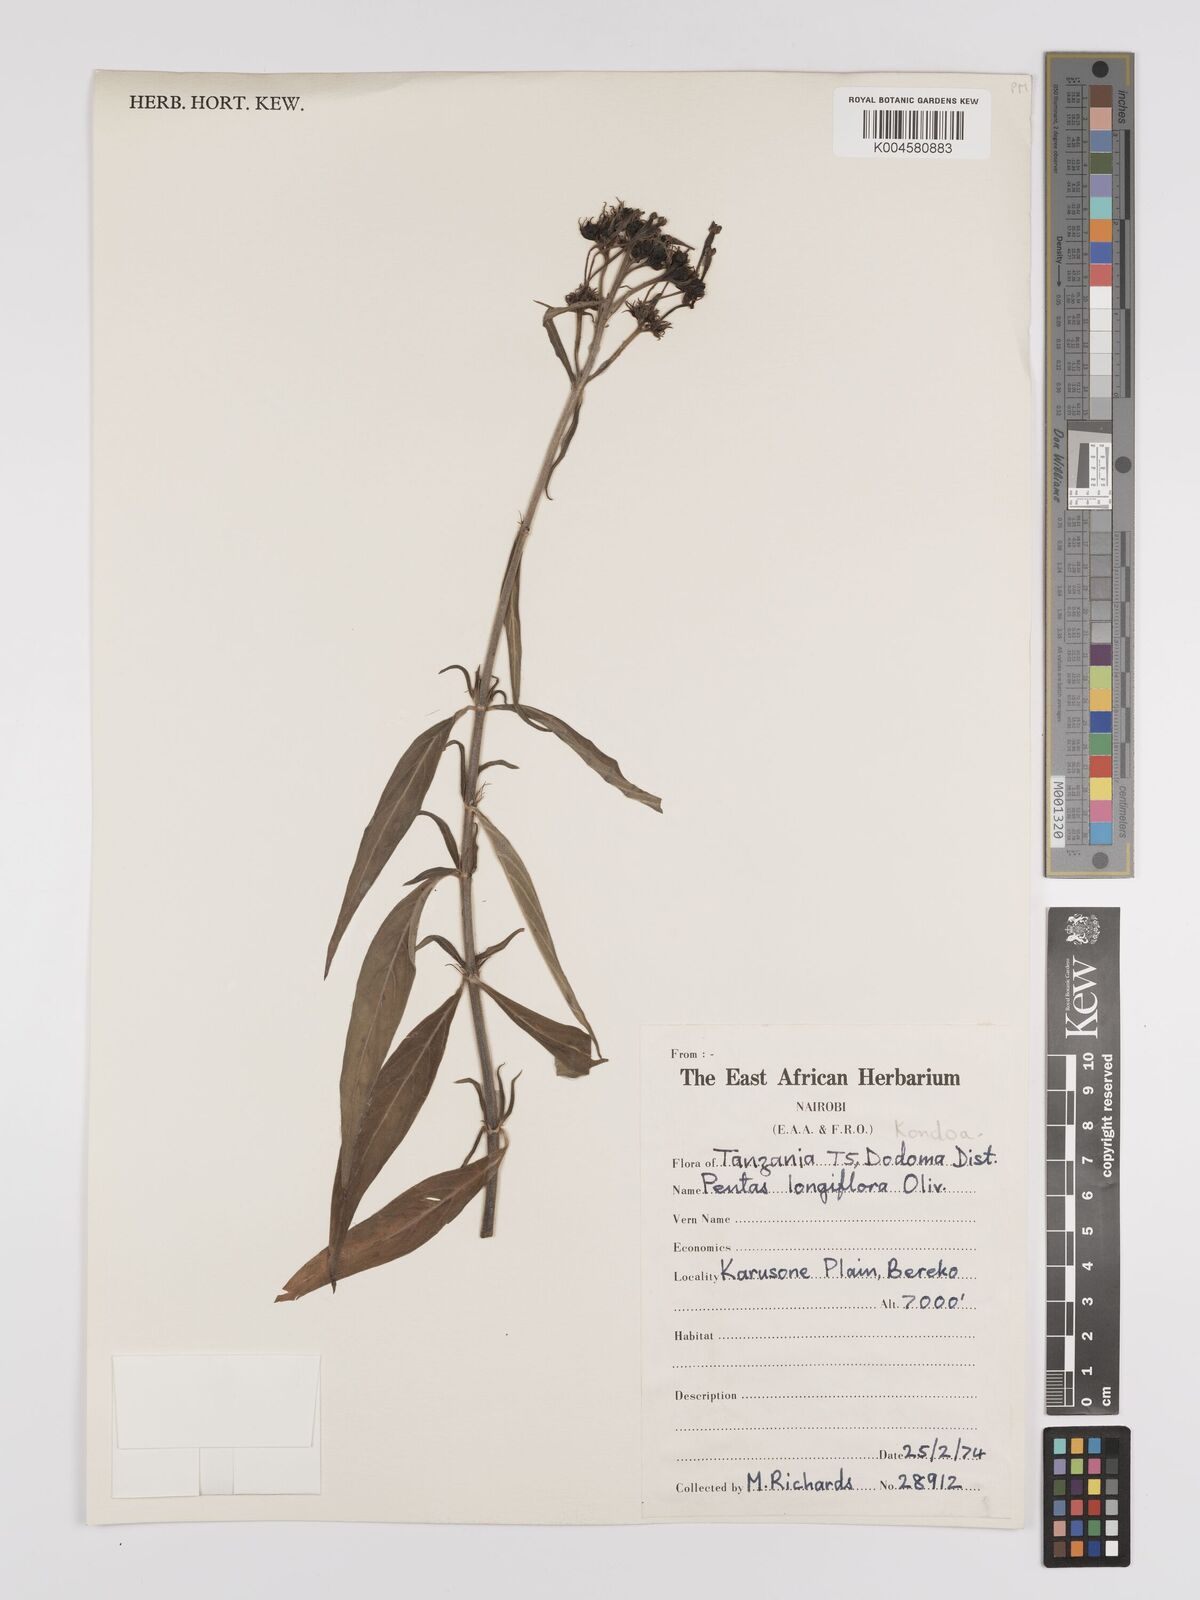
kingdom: Plantae
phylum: Tracheophyta
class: Magnoliopsida
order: Gentianales
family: Rubiaceae
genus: Dolichopentas
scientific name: Dolichopentas longiflora
